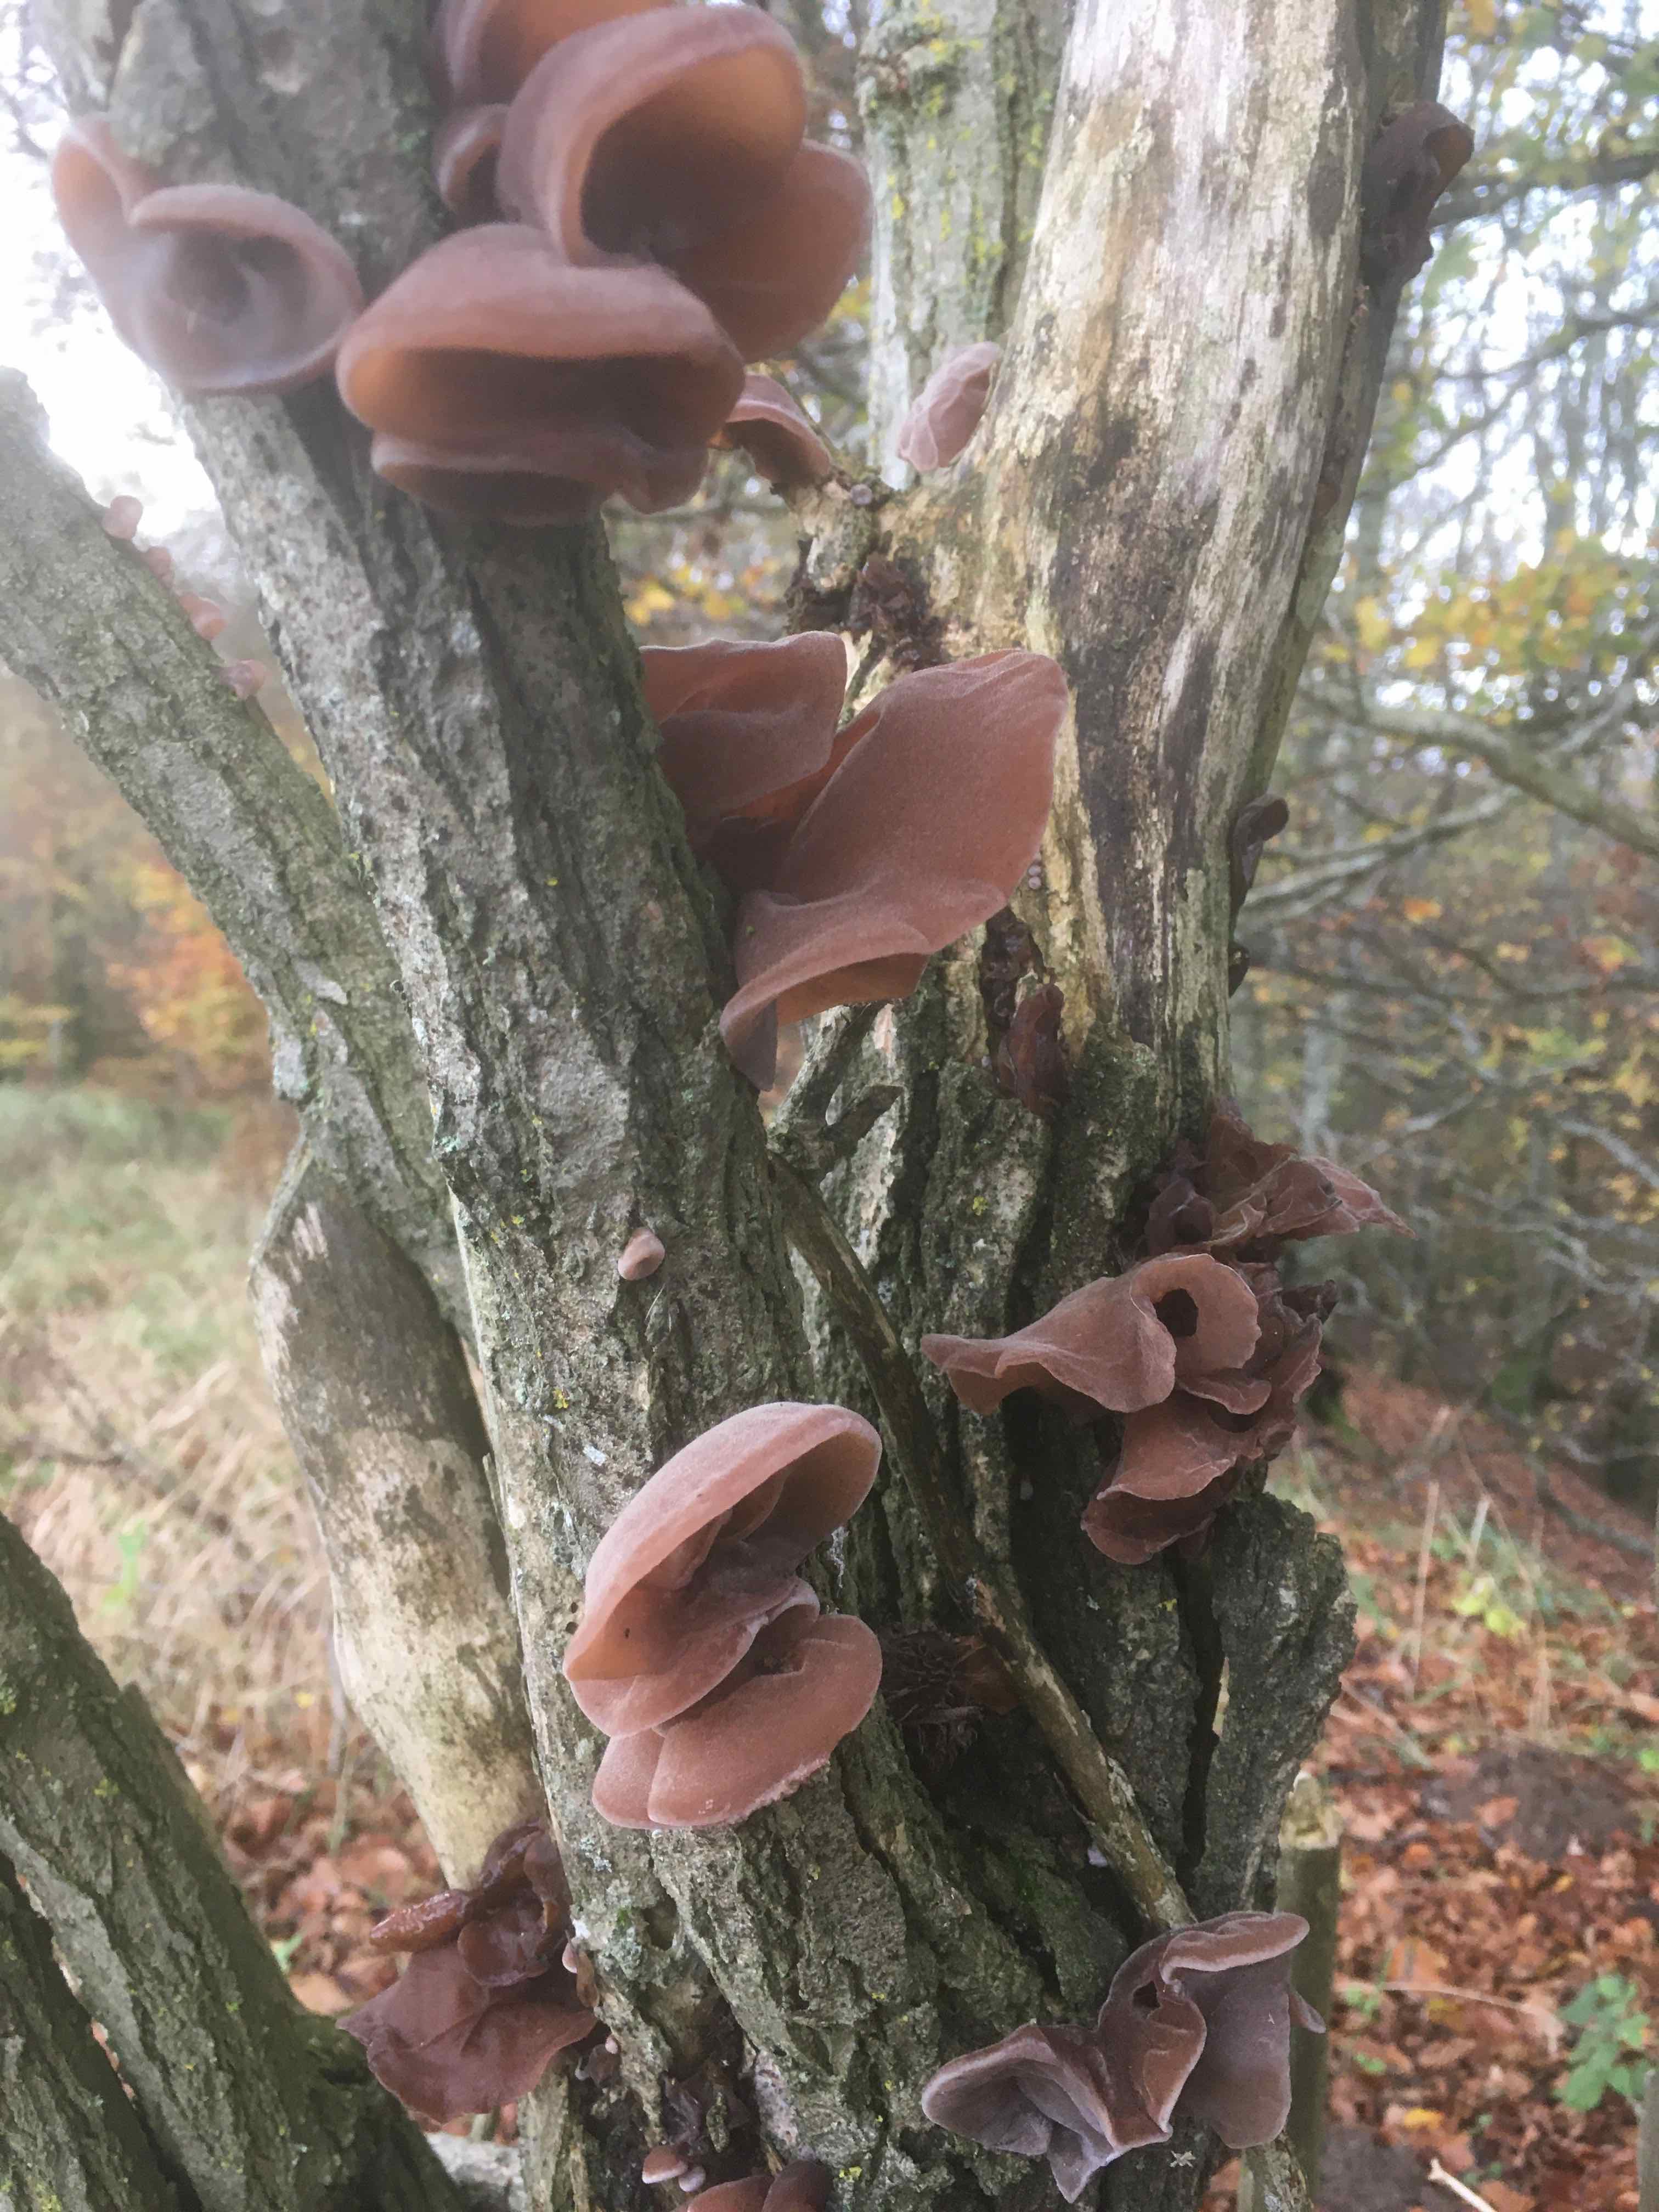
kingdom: Fungi
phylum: Basidiomycota
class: Agaricomycetes
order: Auriculariales
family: Auriculariaceae
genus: Auricularia
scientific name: Auricularia auricula-judae
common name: almindelig judasøre
